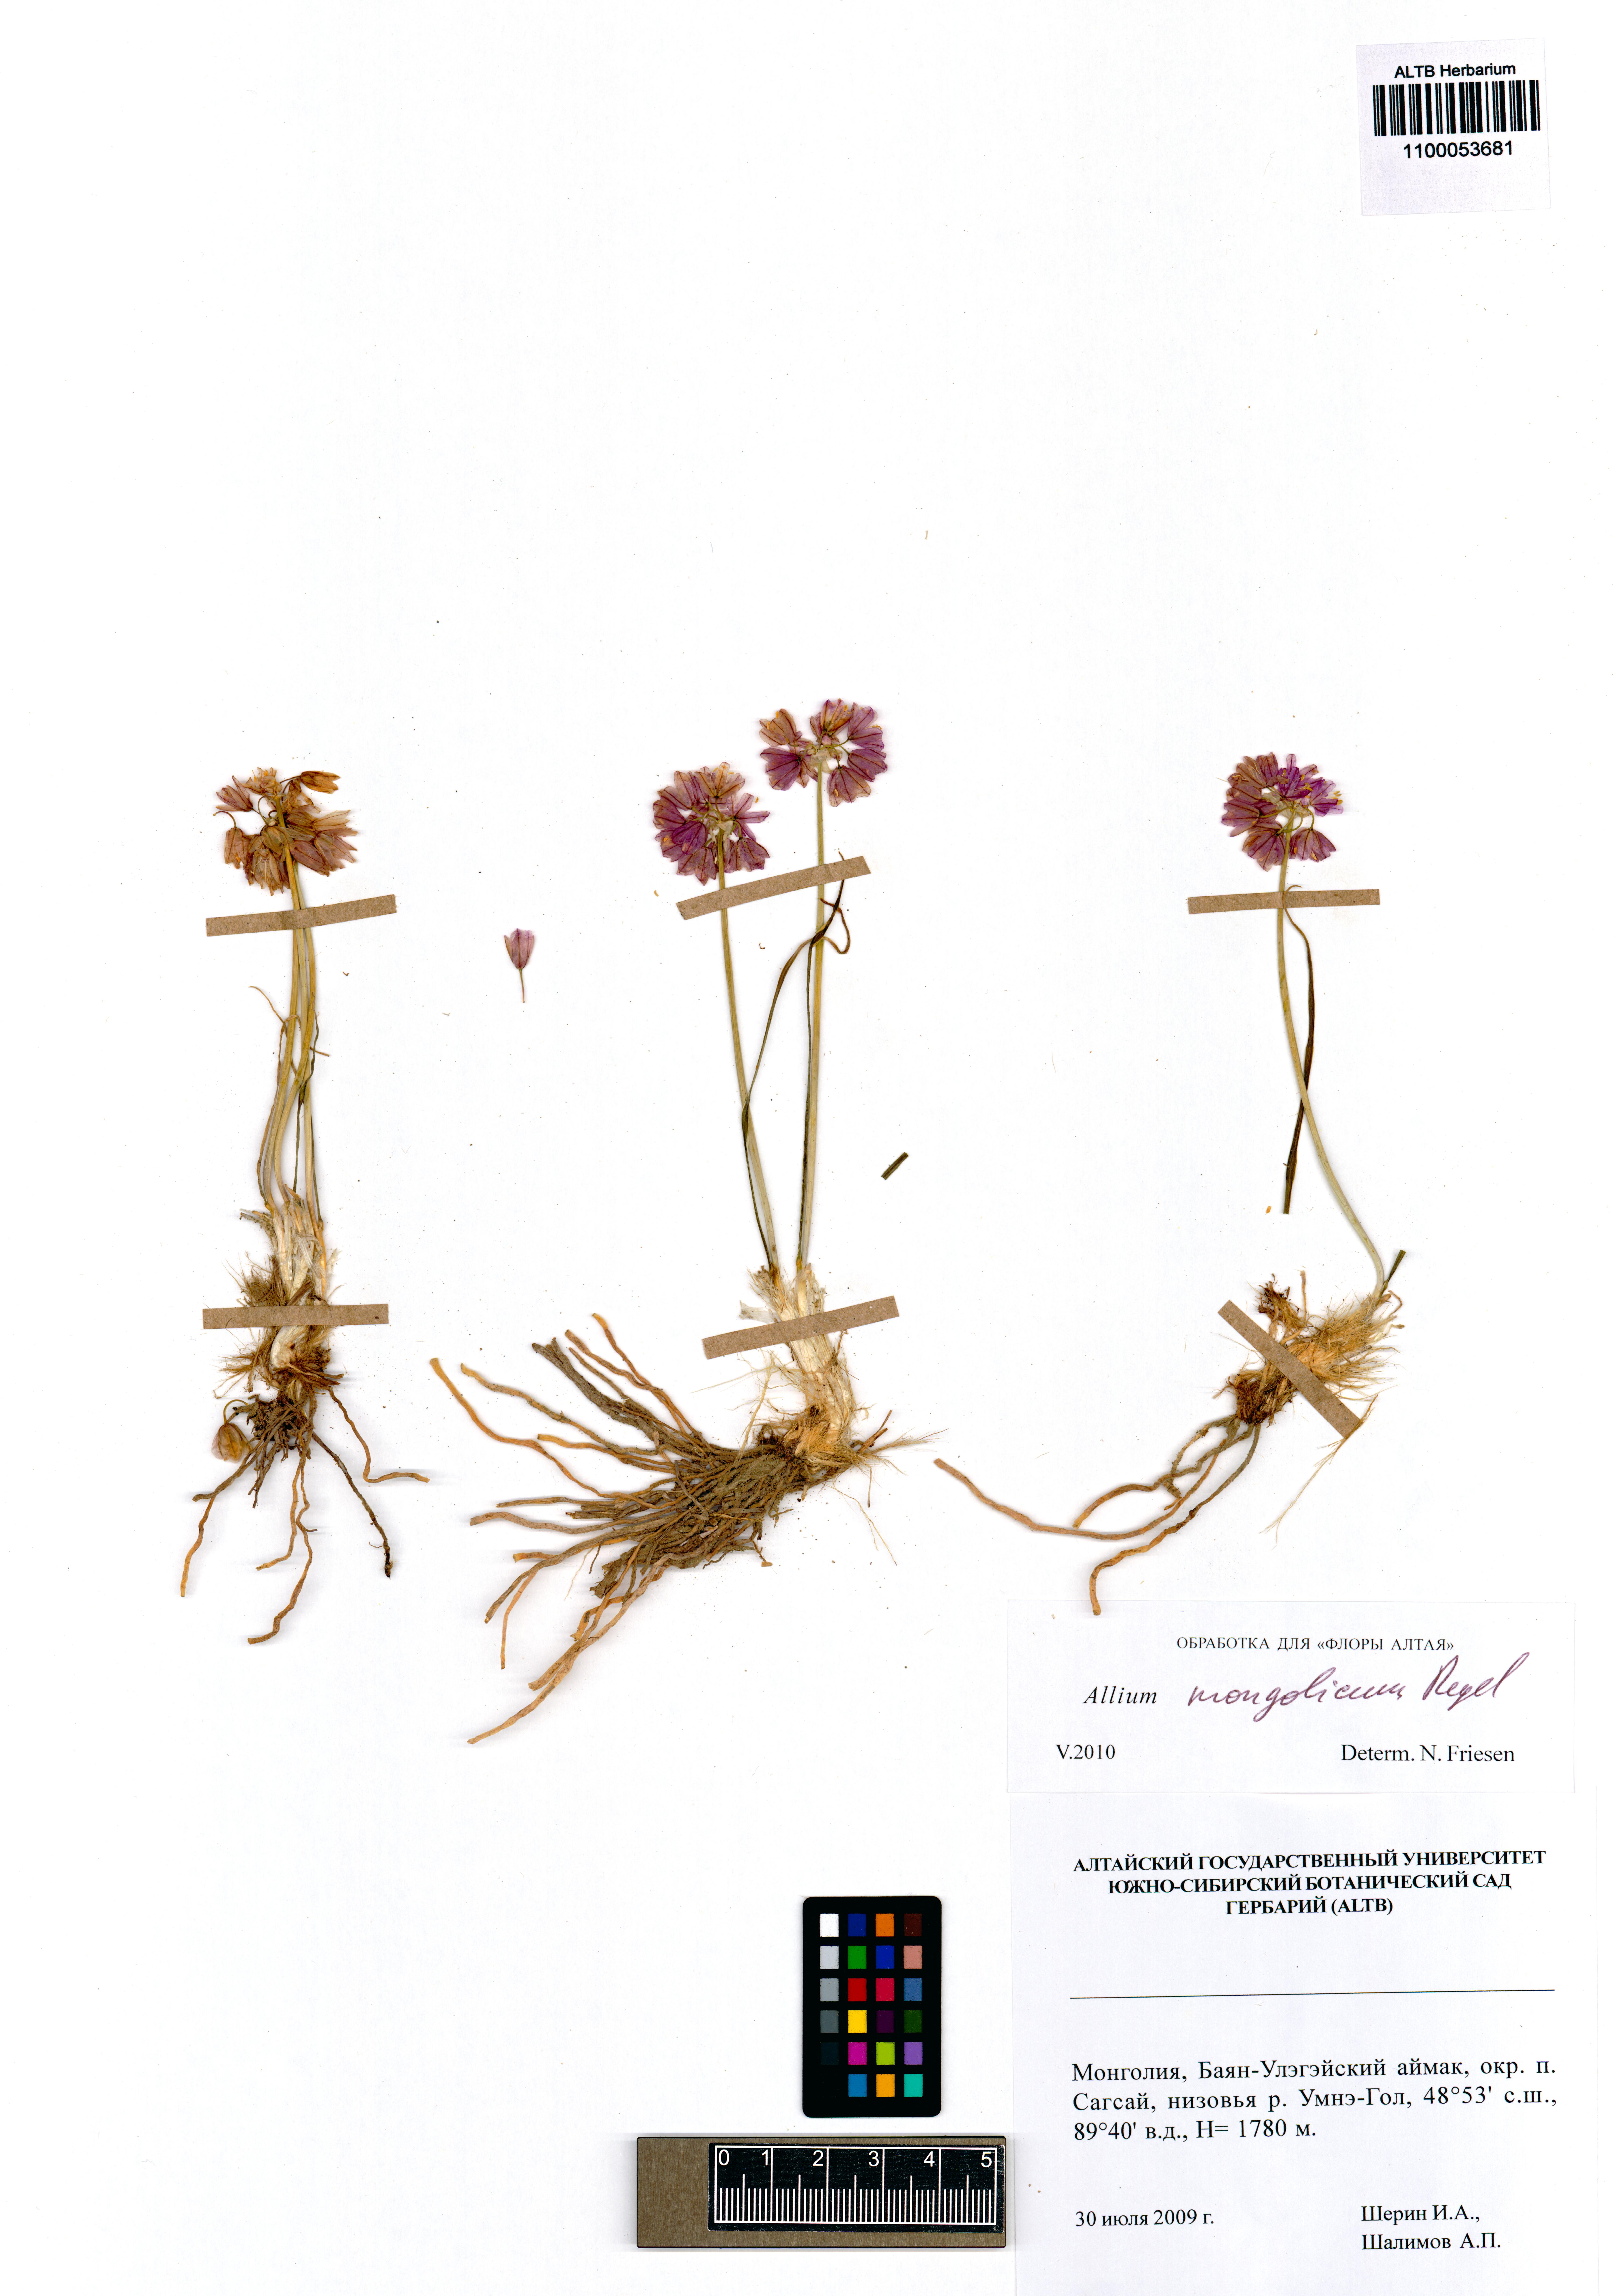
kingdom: Plantae
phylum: Tracheophyta
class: Liliopsida
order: Asparagales
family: Amaryllidaceae
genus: Allium
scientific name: Allium mongolicum
